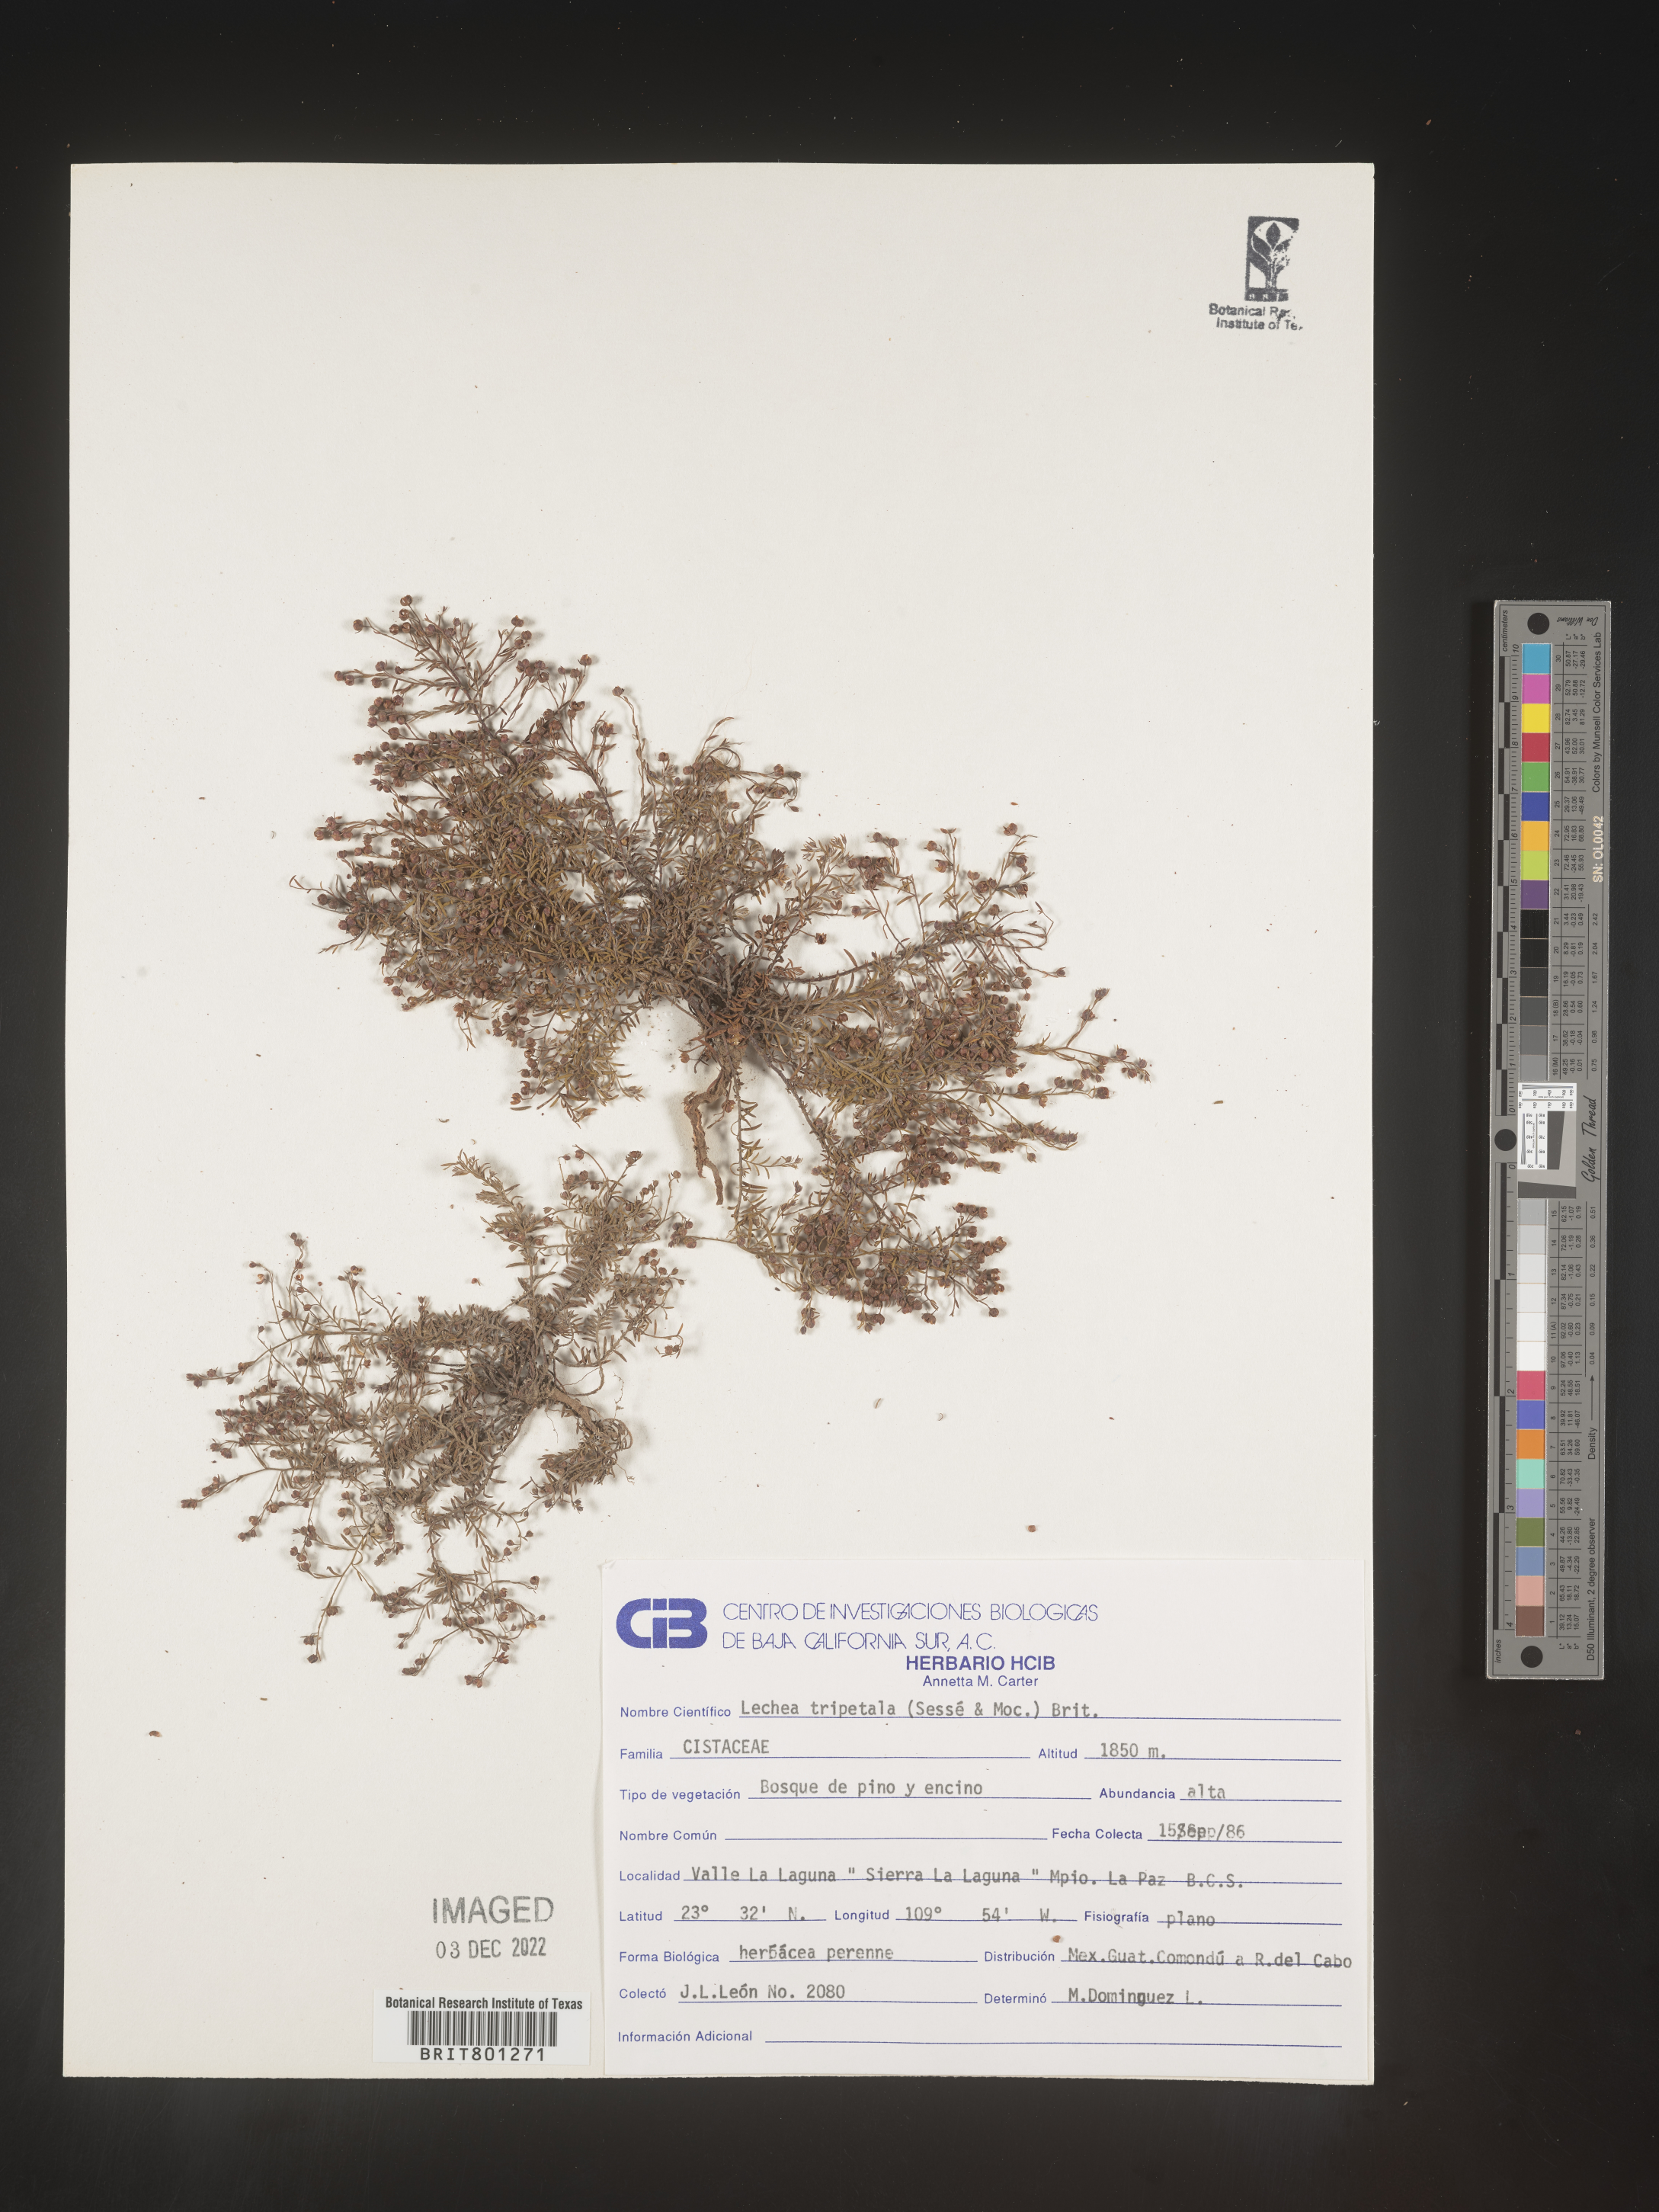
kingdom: Plantae
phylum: Tracheophyta
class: Magnoliopsida
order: Malvales
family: Cistaceae
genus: Lechea
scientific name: Lechea
